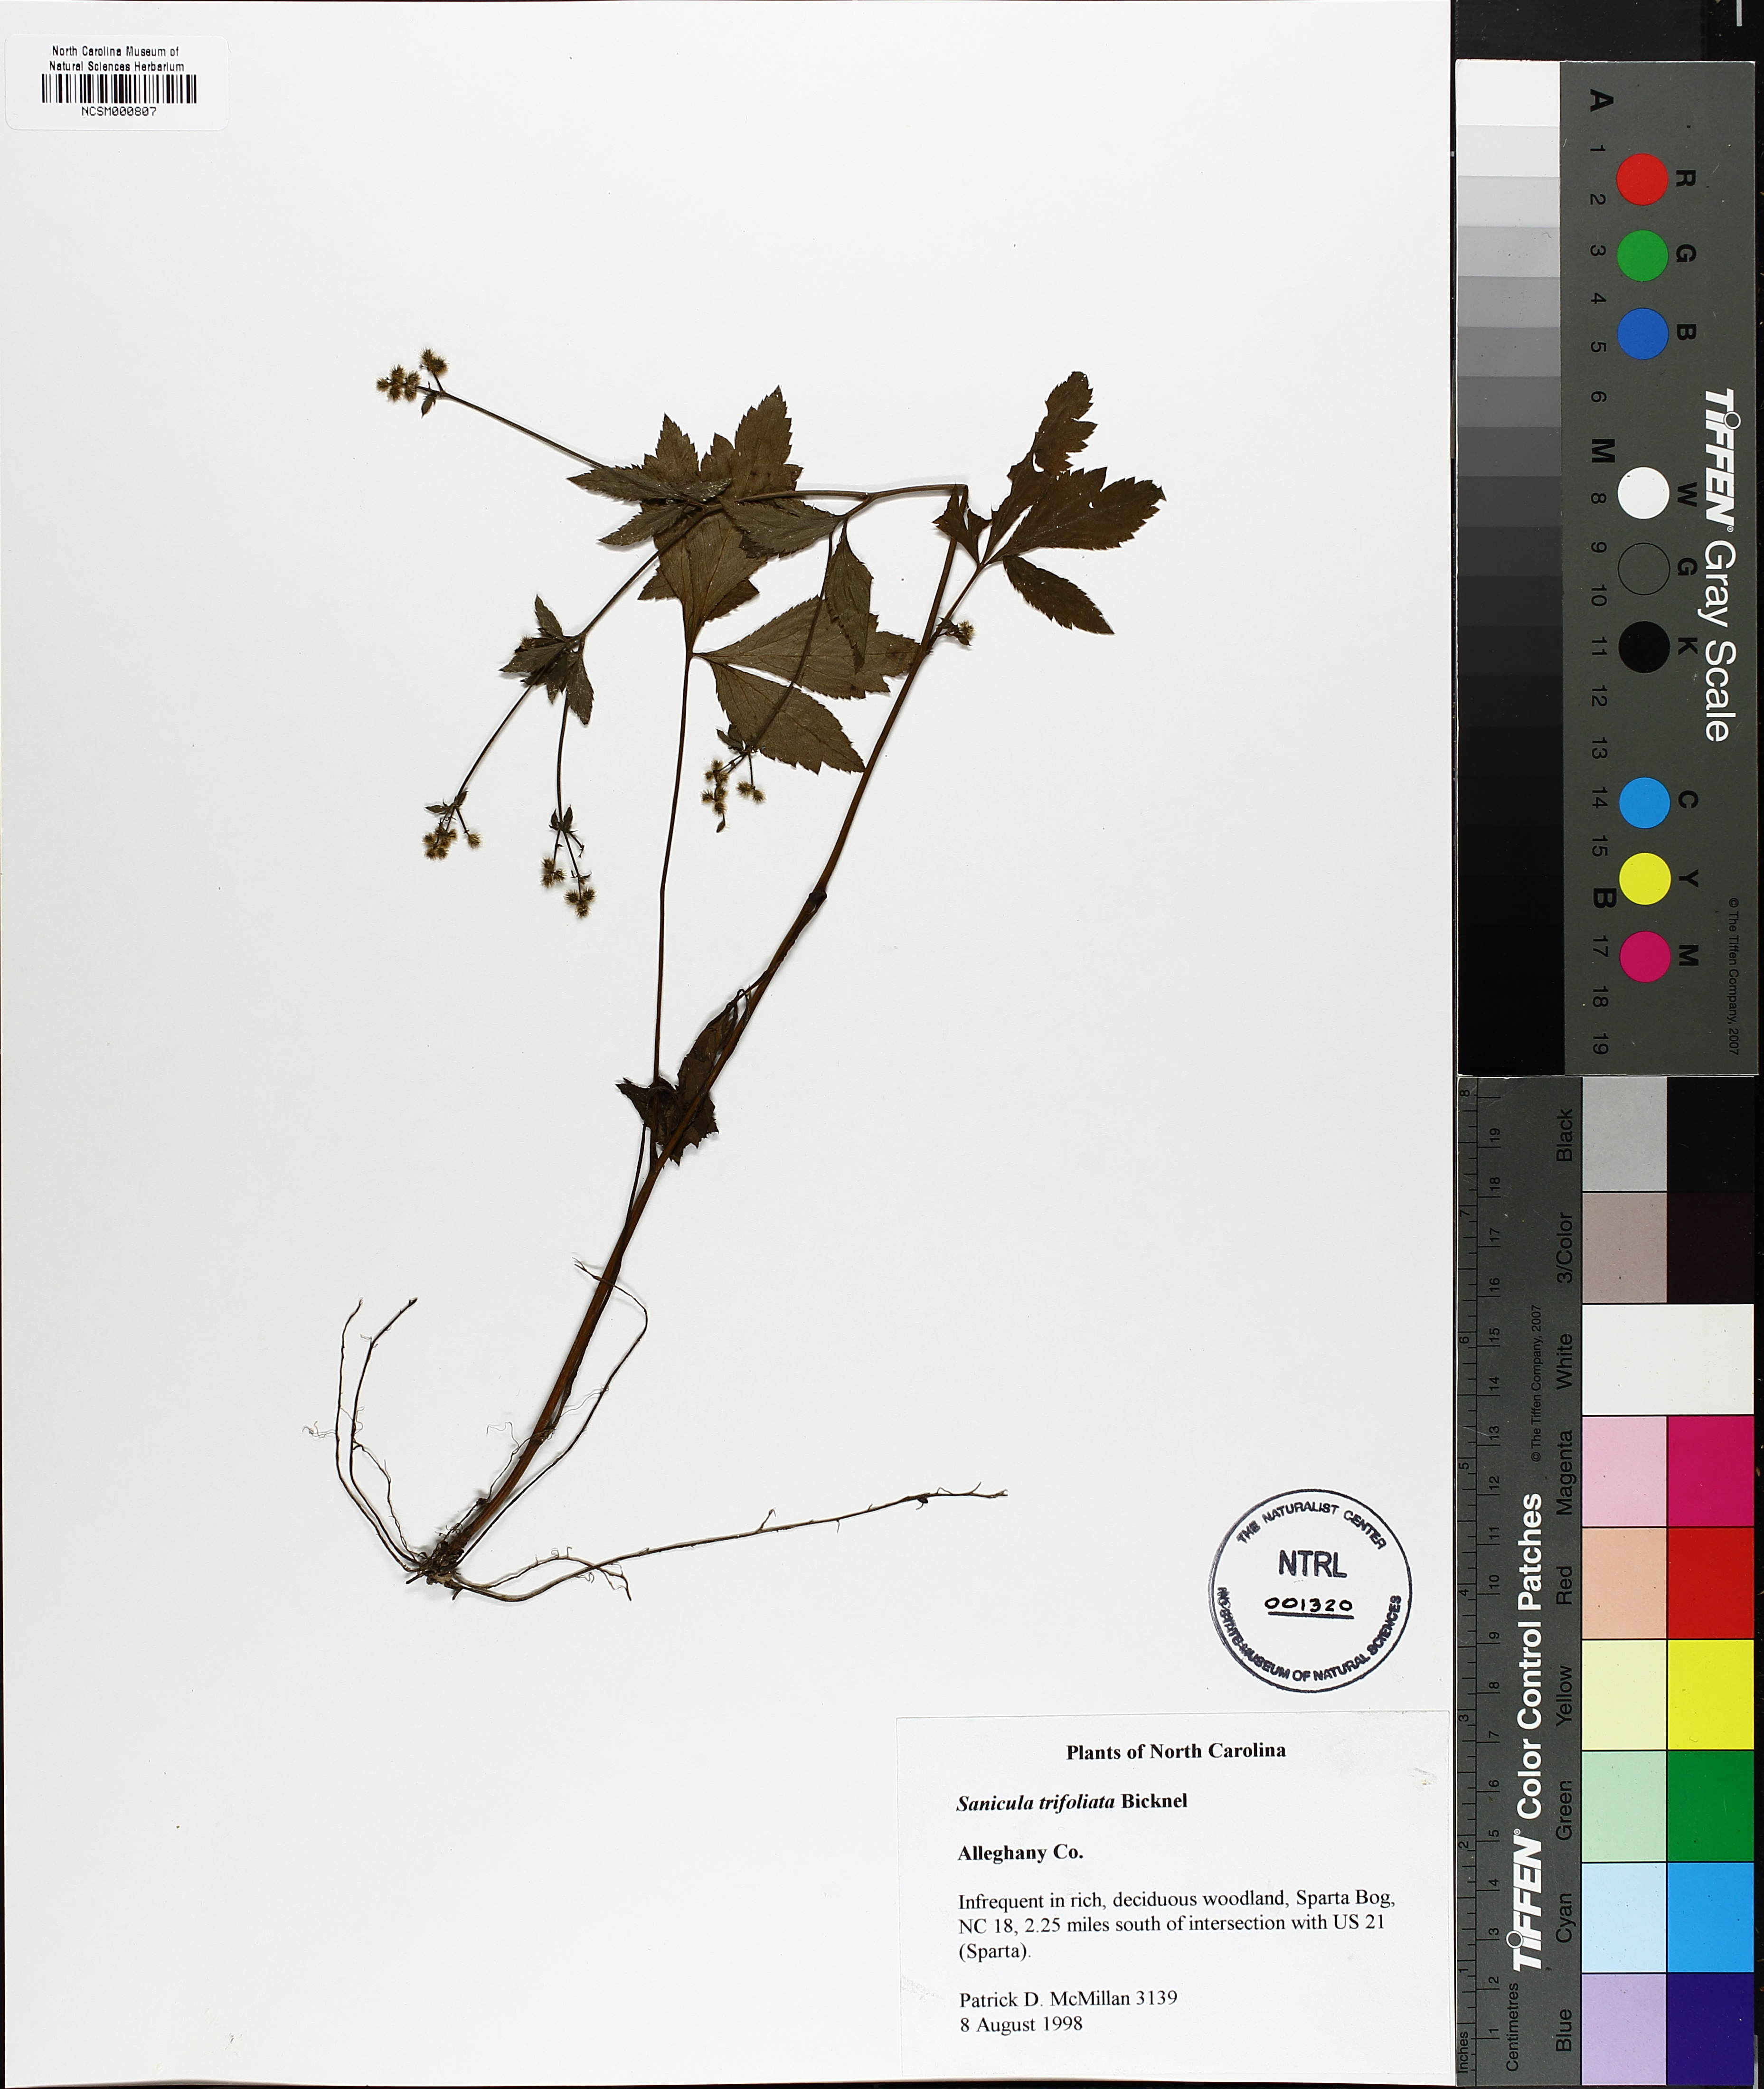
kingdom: Plantae
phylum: Tracheophyta
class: Magnoliopsida
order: Apiales
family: Apiaceae
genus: Sanicula
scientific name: Sanicula trifoliata
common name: Beaked sanicle
